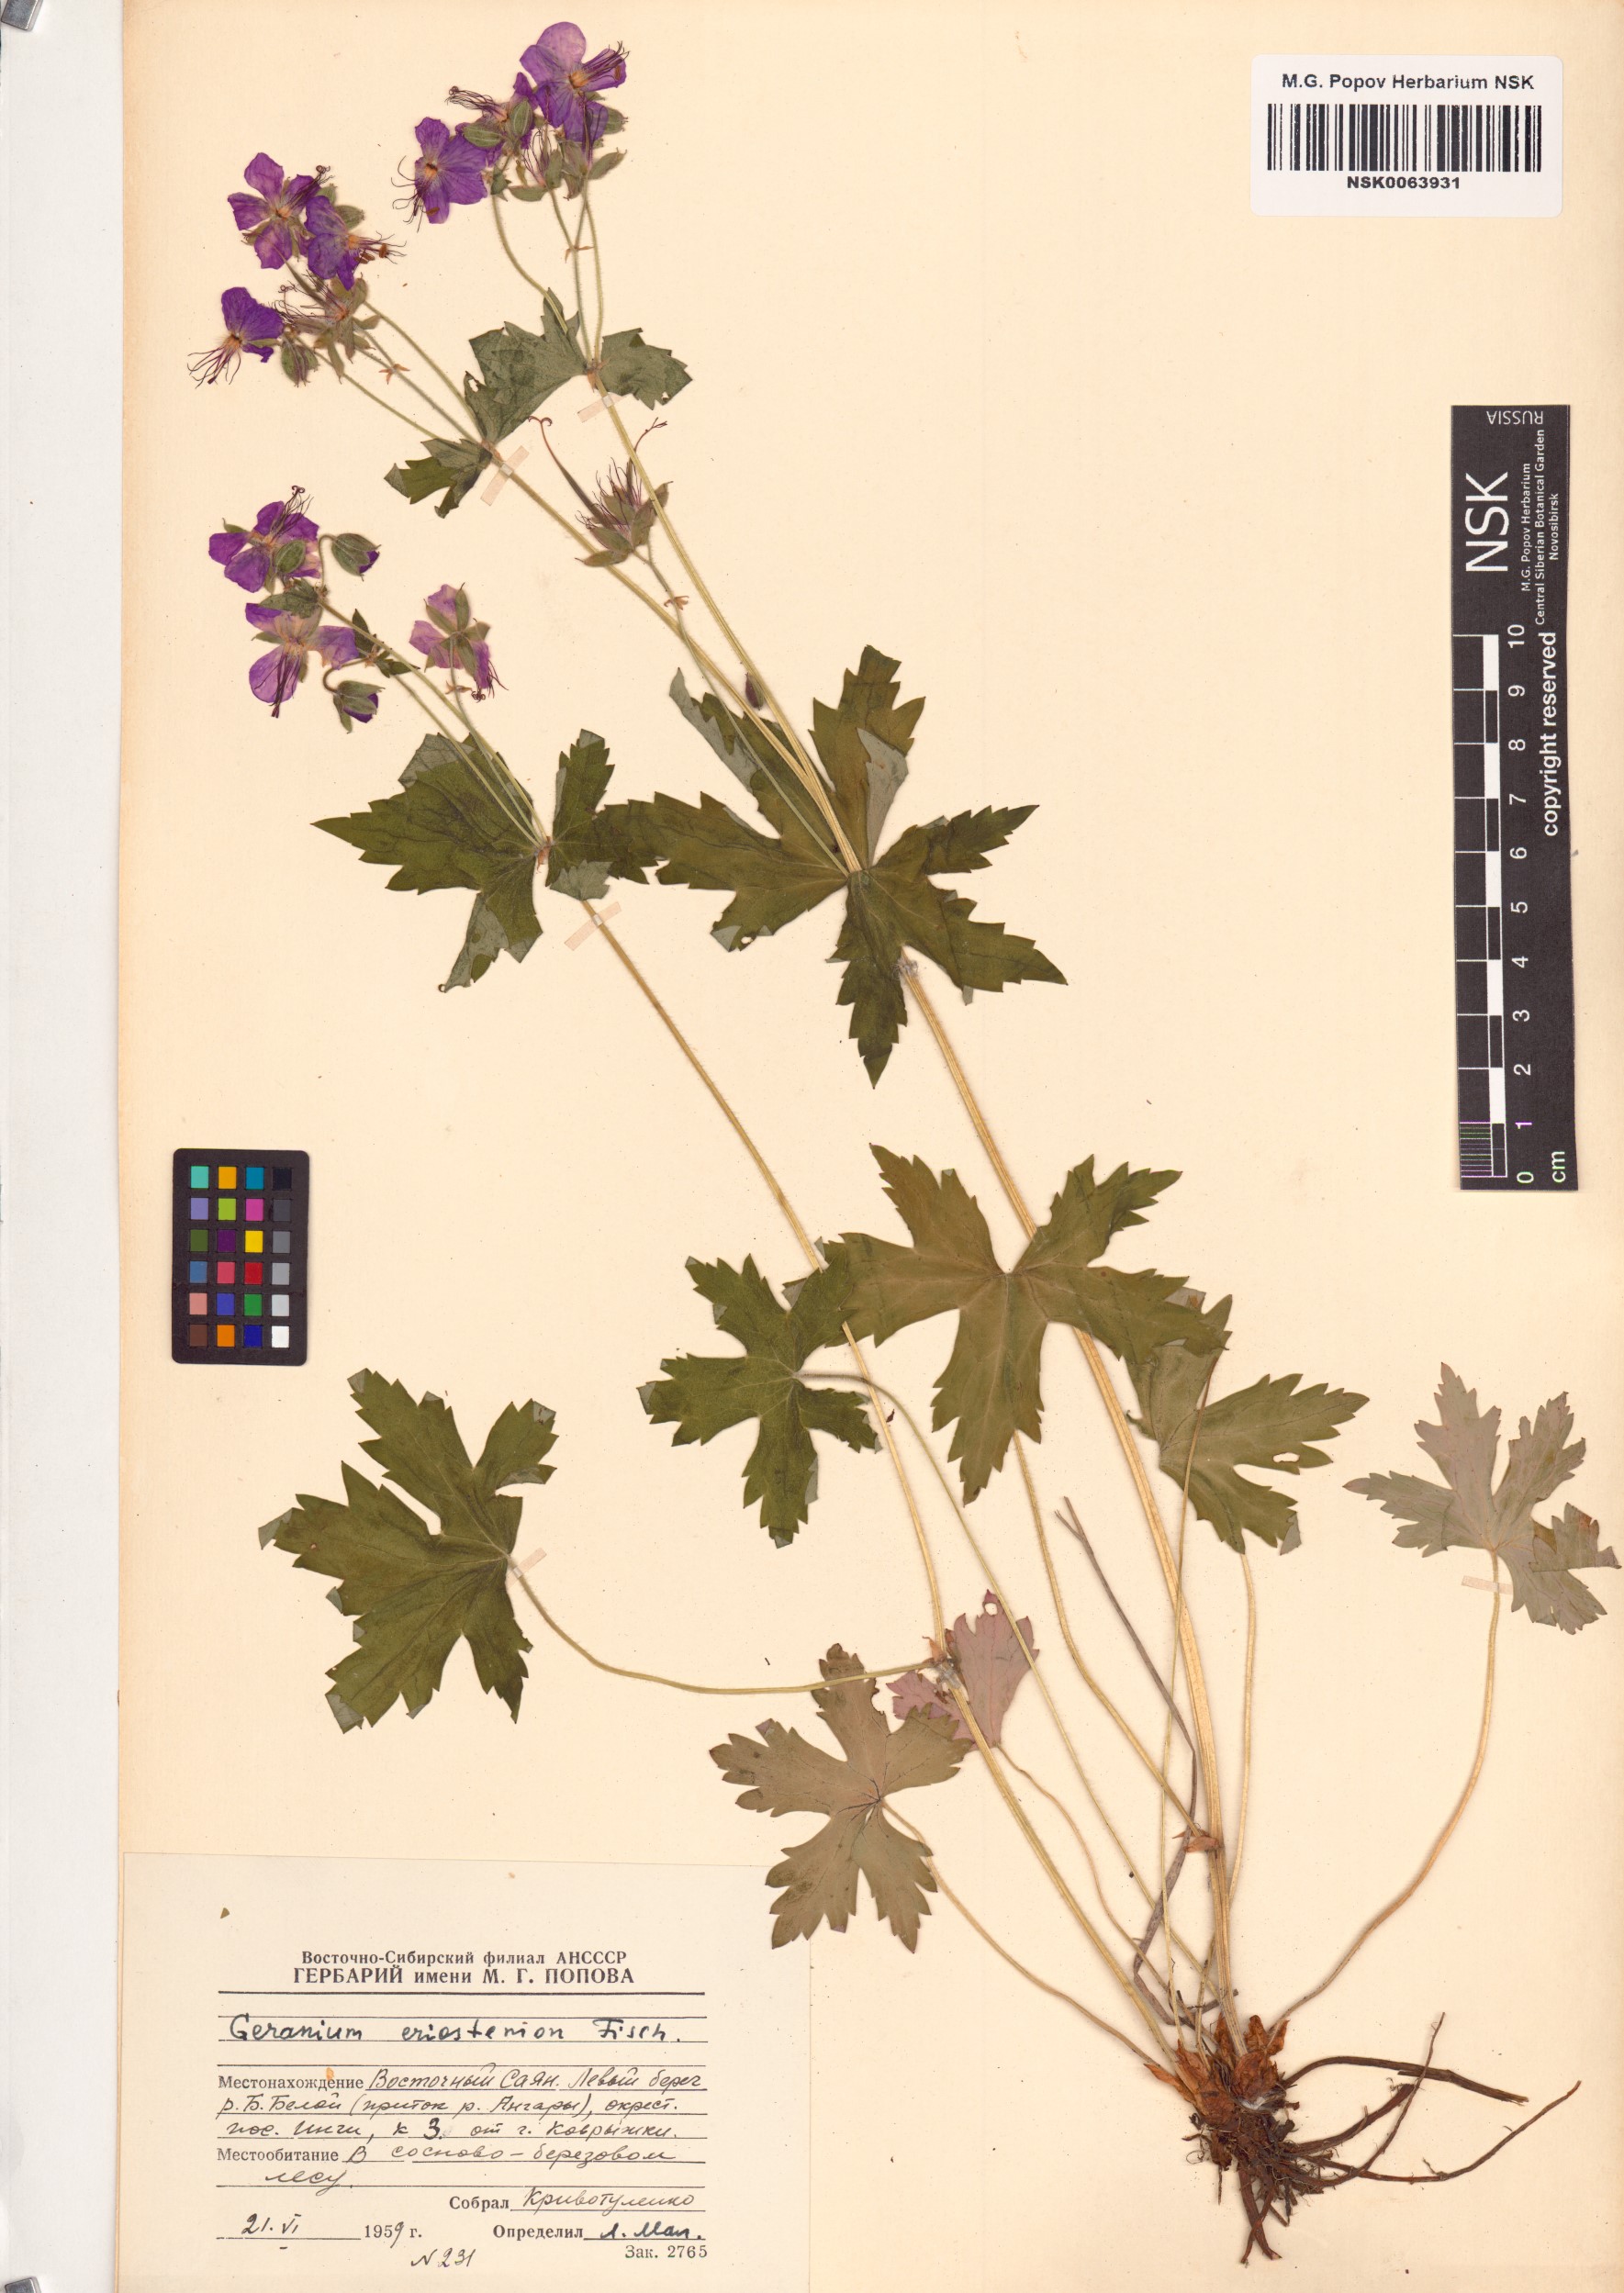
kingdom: Plantae
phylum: Tracheophyta
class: Magnoliopsida
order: Geraniales
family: Geraniaceae
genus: Geranium
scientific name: Geranium platyanthum
